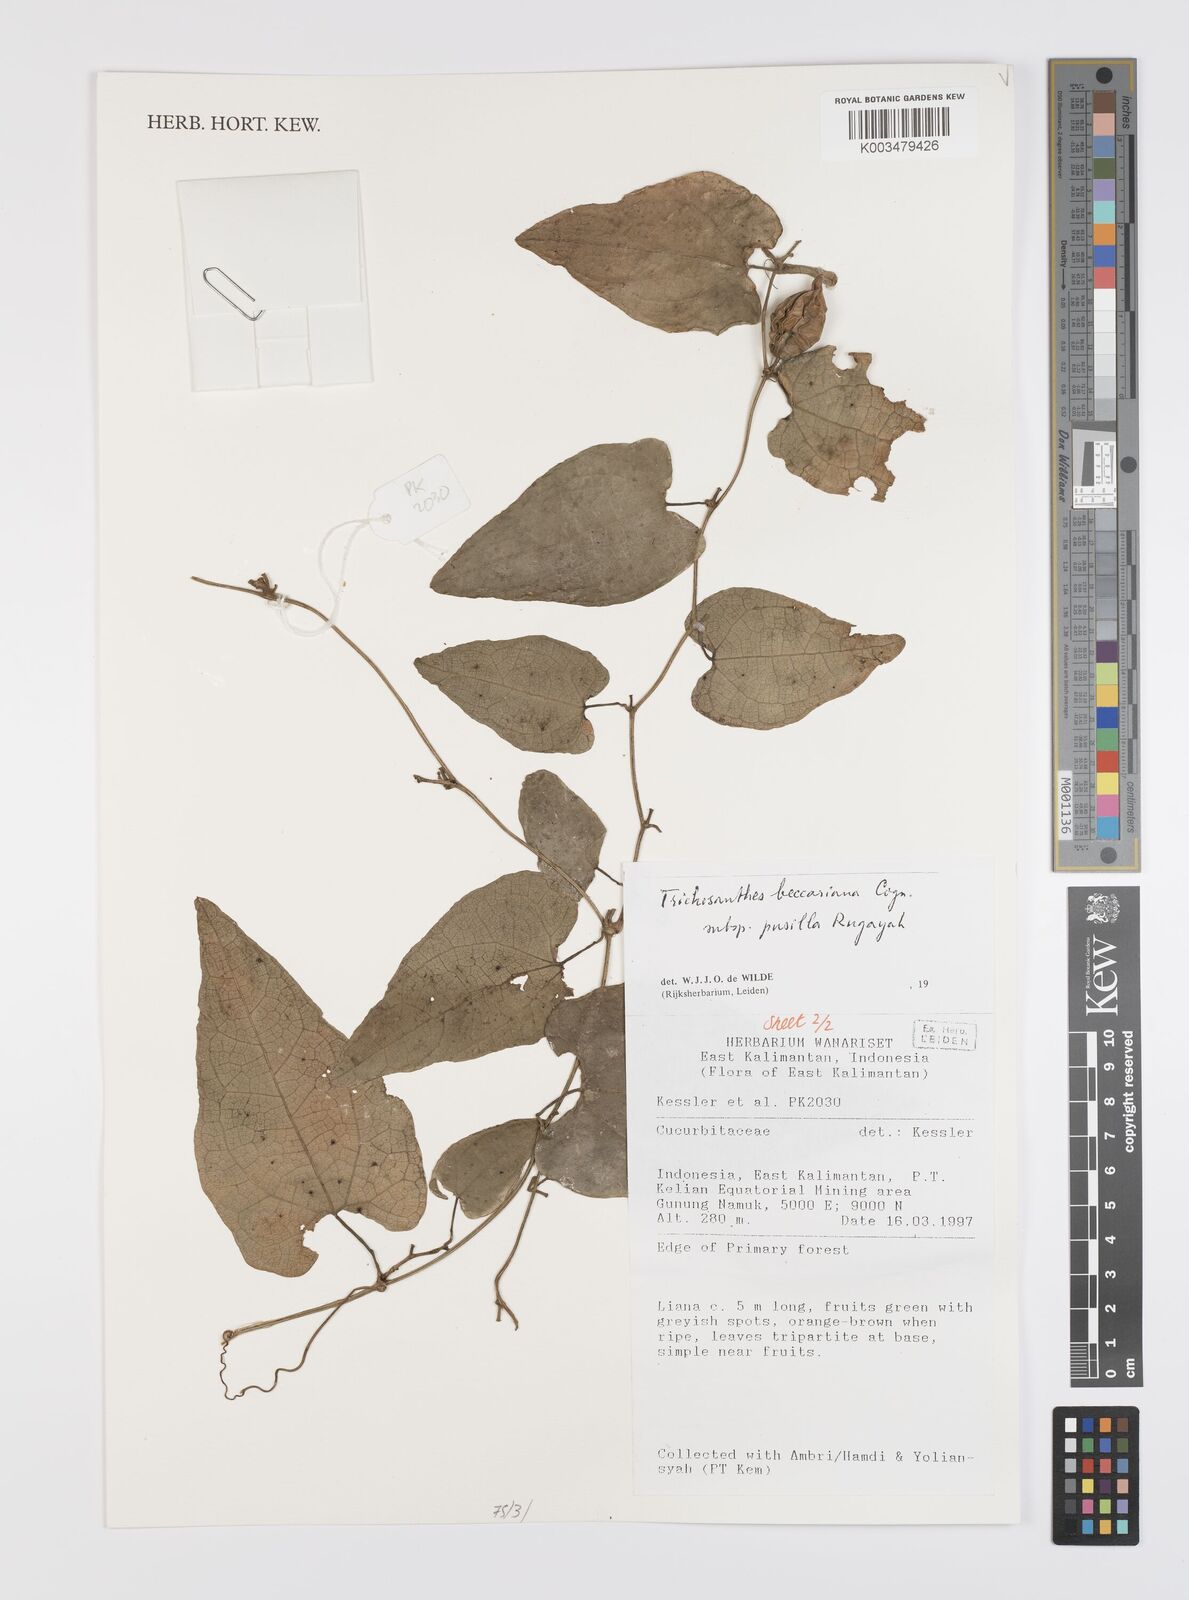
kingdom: Plantae
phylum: Tracheophyta
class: Magnoliopsida
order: Cucurbitales
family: Cucurbitaceae
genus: Trichosanthes
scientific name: Trichosanthes beccariana
